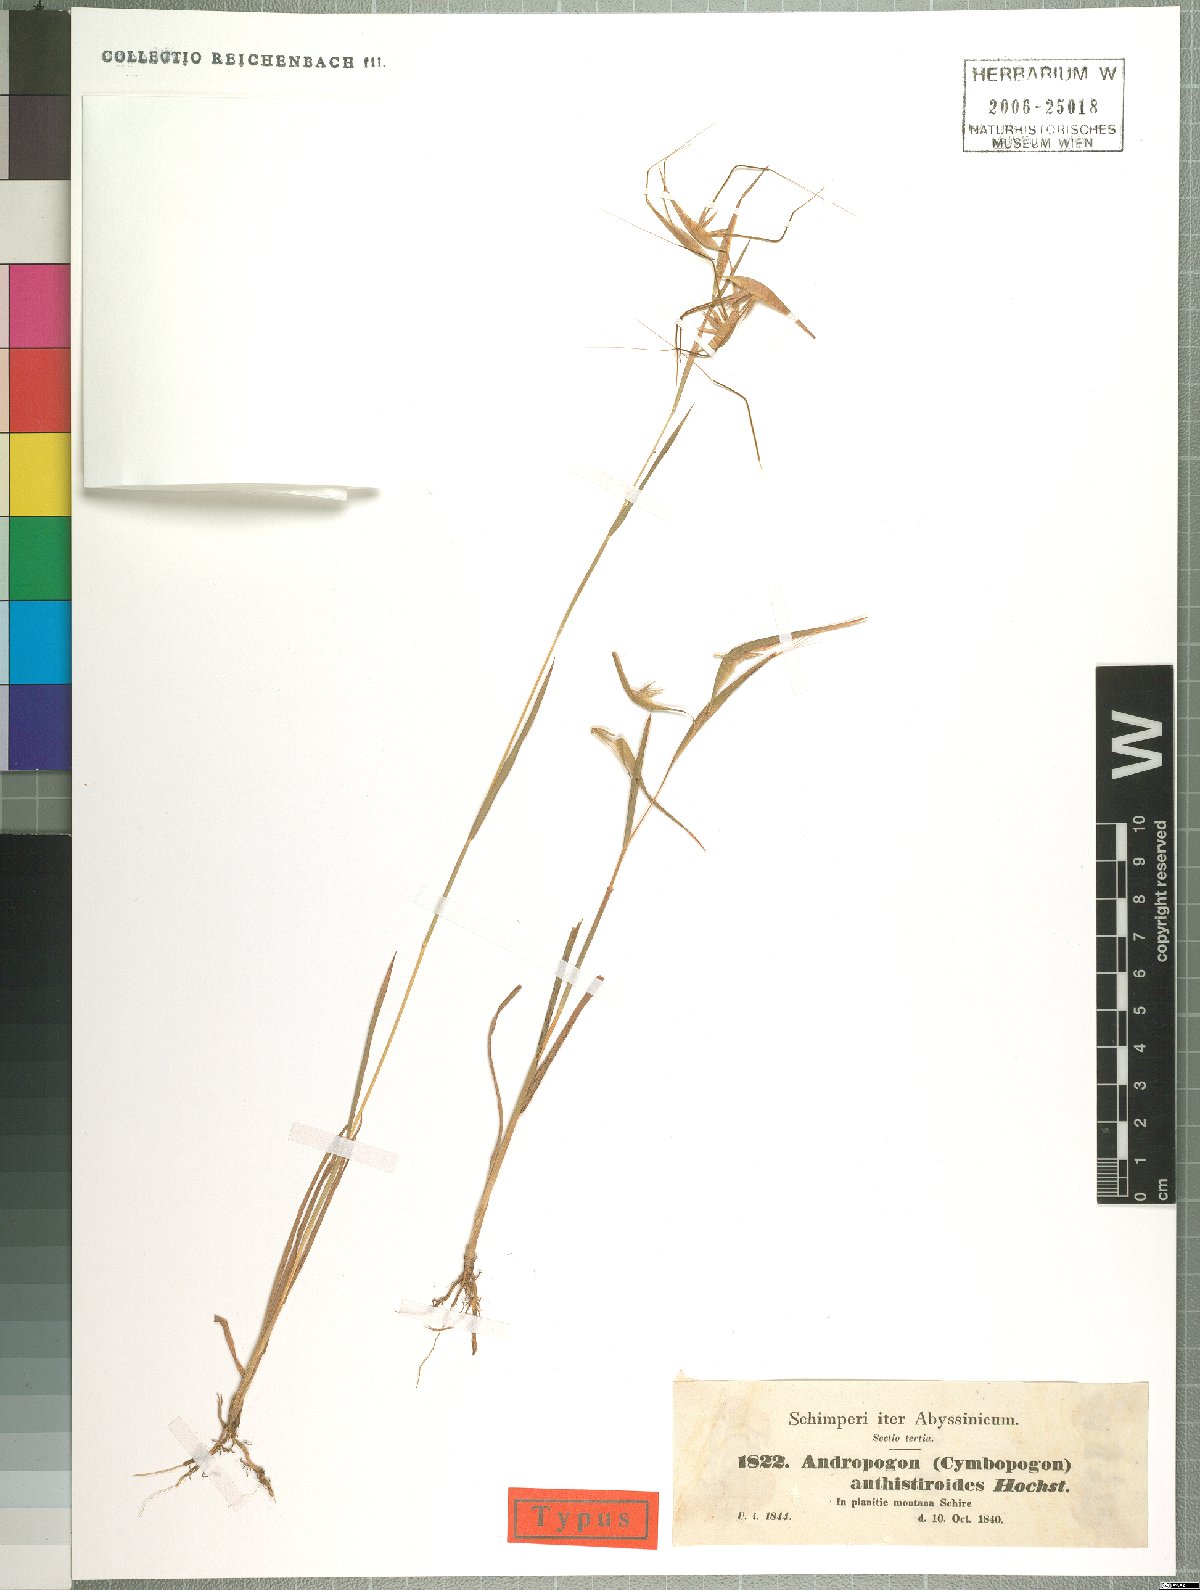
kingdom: Plantae
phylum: Tracheophyta
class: Liliopsida
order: Poales
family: Poaceae
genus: Hyparrhenia
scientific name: Hyparrhenia anthistirioides
